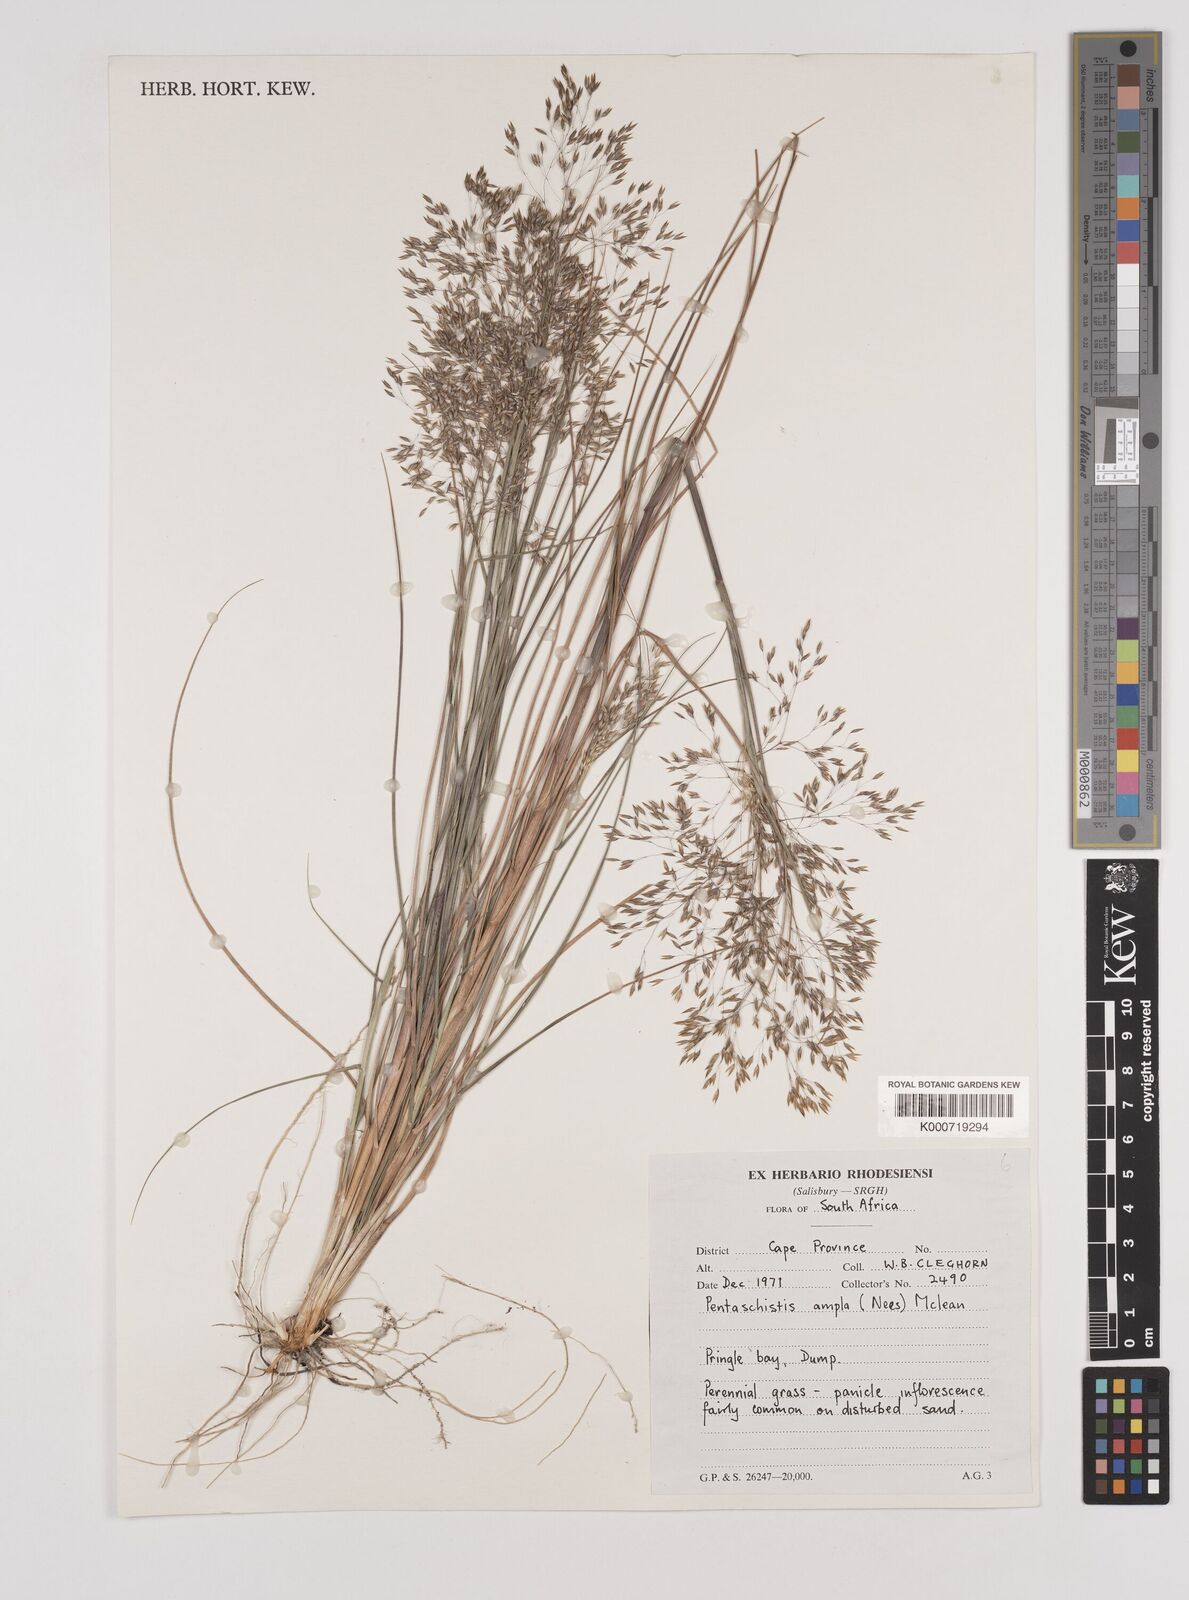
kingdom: Plantae
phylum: Tracheophyta
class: Liliopsida
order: Poales
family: Poaceae
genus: Pentameris
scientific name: Pentameris ampla
